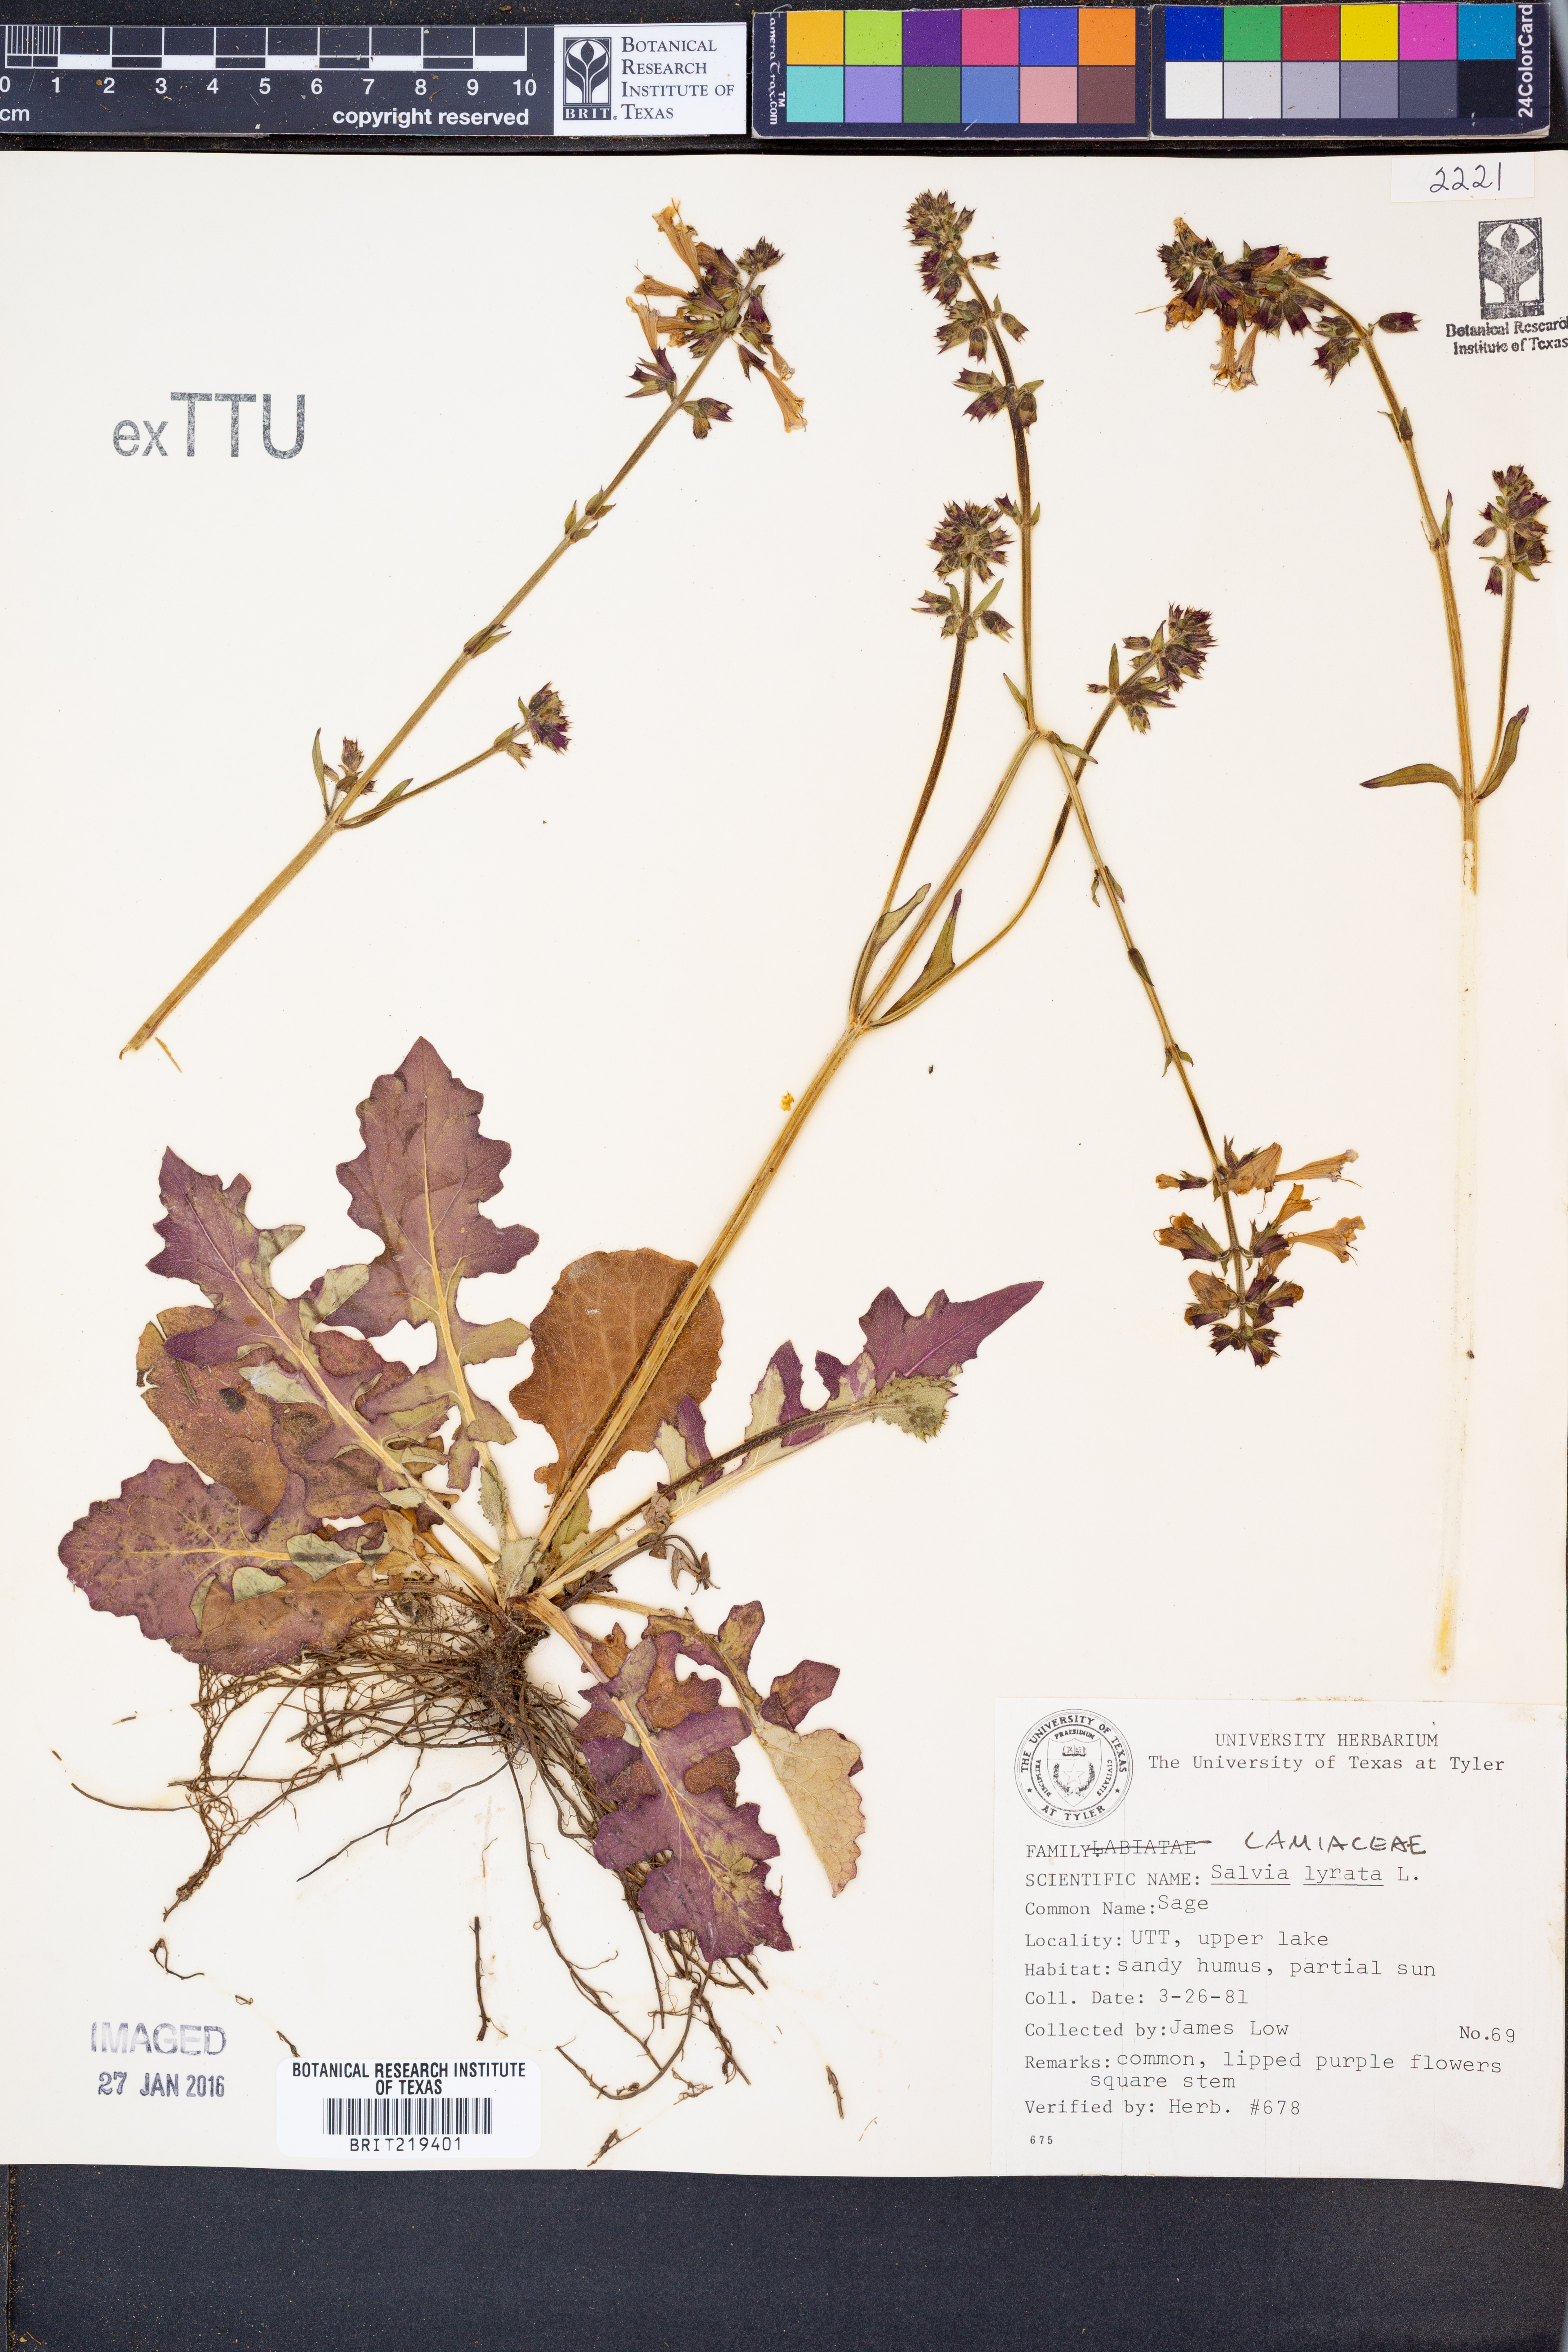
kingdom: Plantae
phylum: Tracheophyta
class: Magnoliopsida
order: Lamiales
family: Lamiaceae
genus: Salvia
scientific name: Salvia lyrata
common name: Cancerweed
